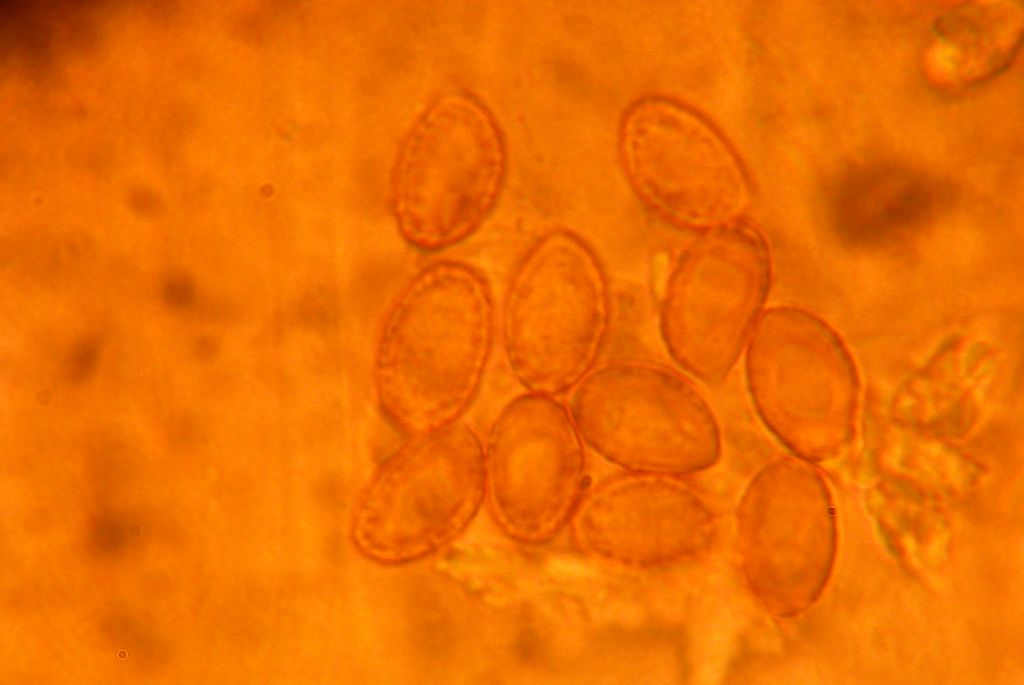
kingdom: Fungi
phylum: Basidiomycota
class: Agaricomycetes
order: Agaricales
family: Cortinariaceae
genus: Cortinarius
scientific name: Cortinarius armeniacus
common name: abrikos-slørhat
